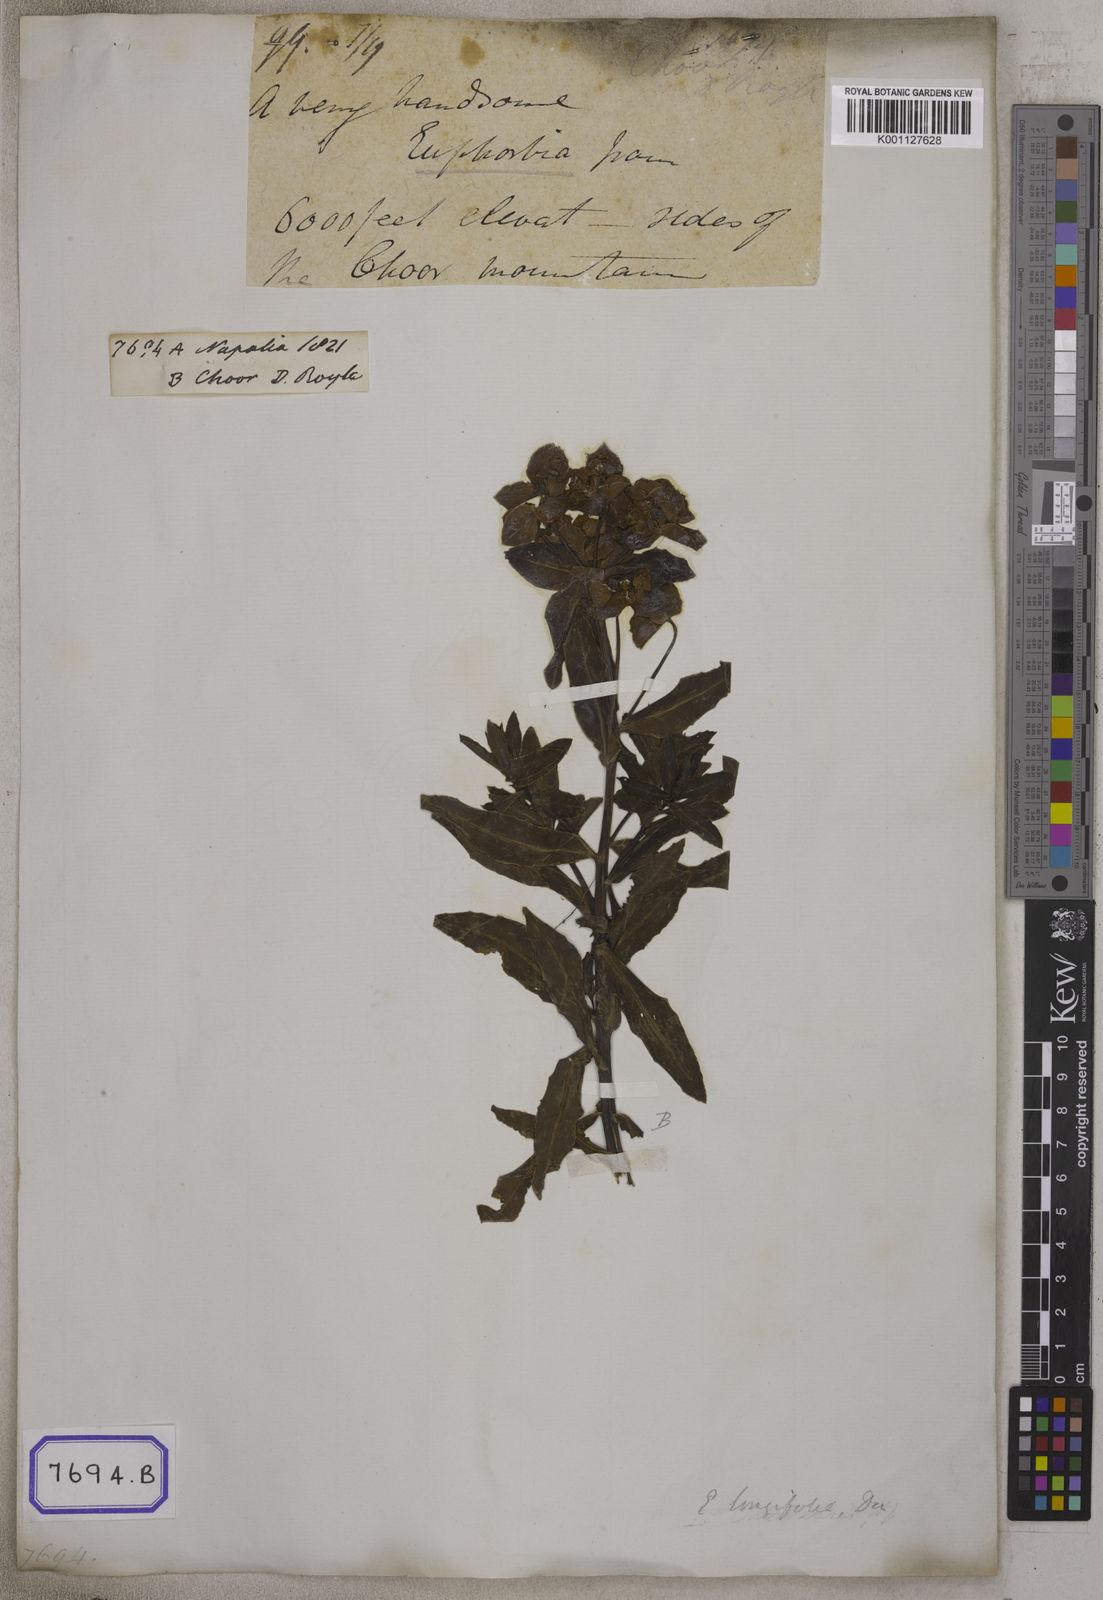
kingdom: Plantae
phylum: Tracheophyta
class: Magnoliopsida
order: Malpighiales
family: Euphorbiaceae
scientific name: Euphorbiaceae
